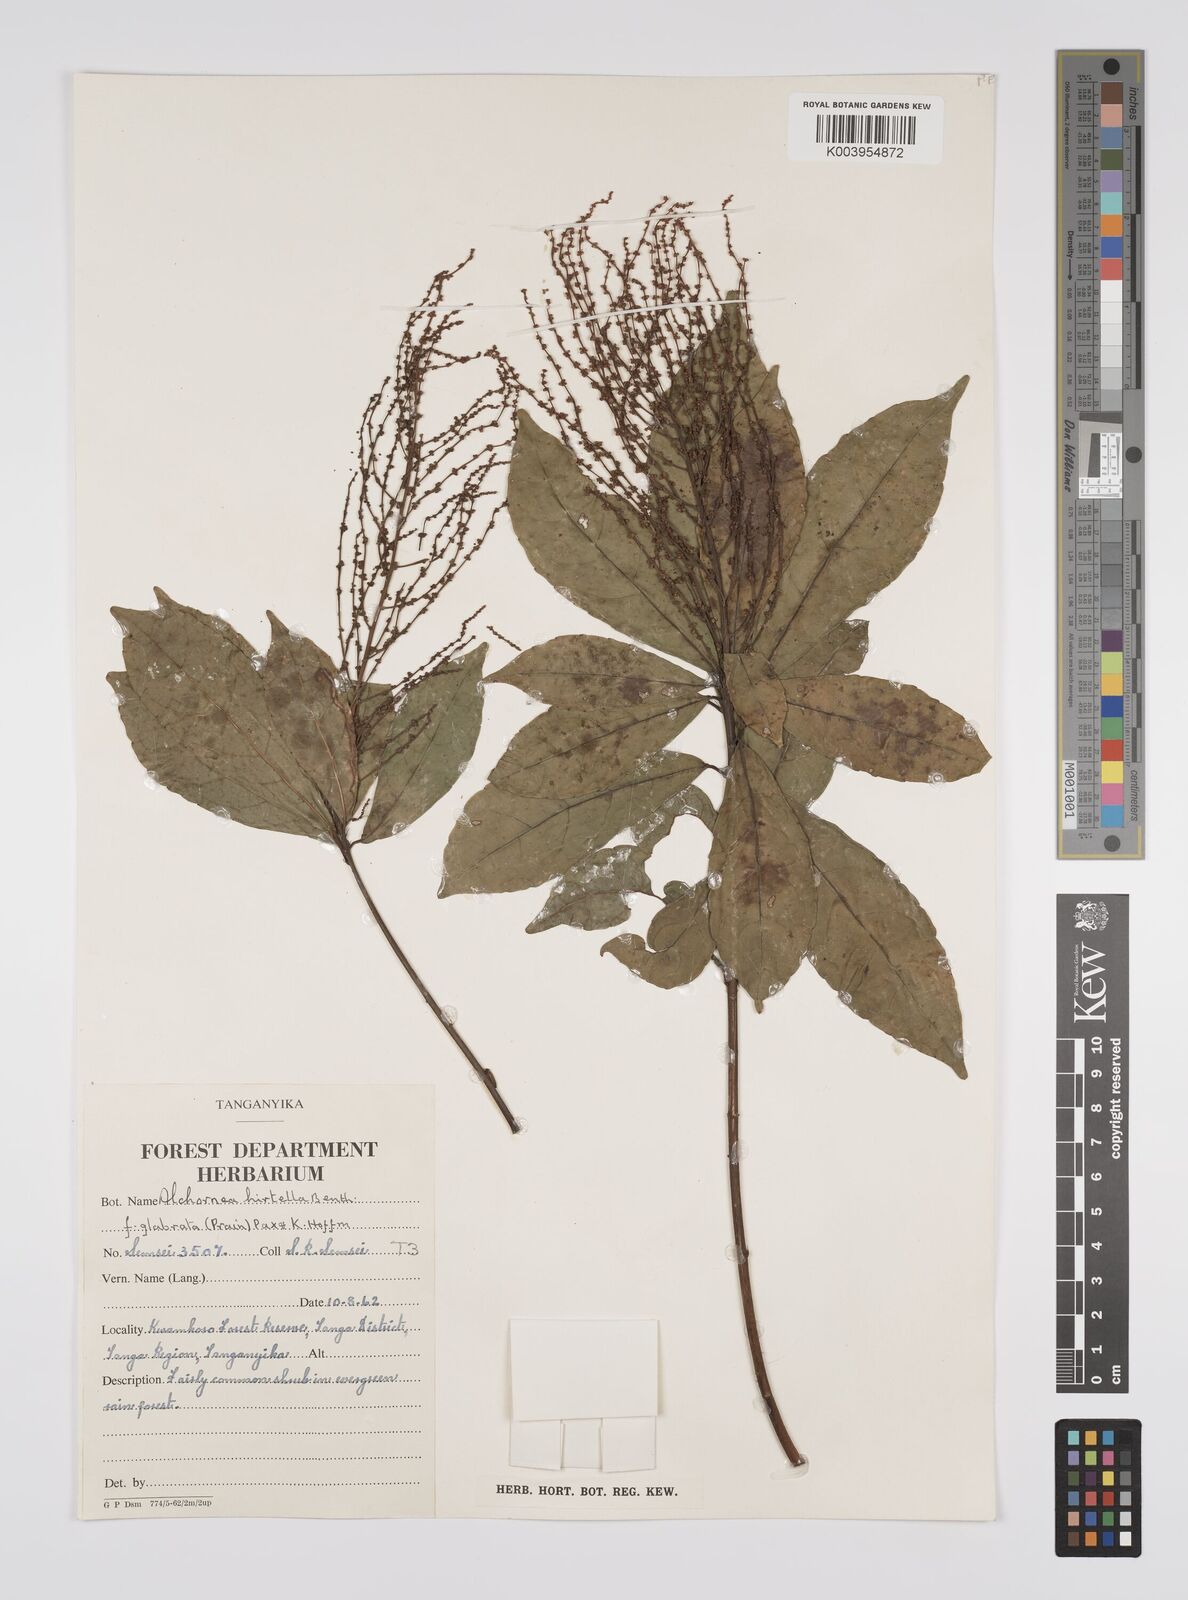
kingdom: Plantae
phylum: Tracheophyta
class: Magnoliopsida
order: Malpighiales
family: Euphorbiaceae
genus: Alchornea
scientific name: Alchornea hirtella
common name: Forest bead-string
